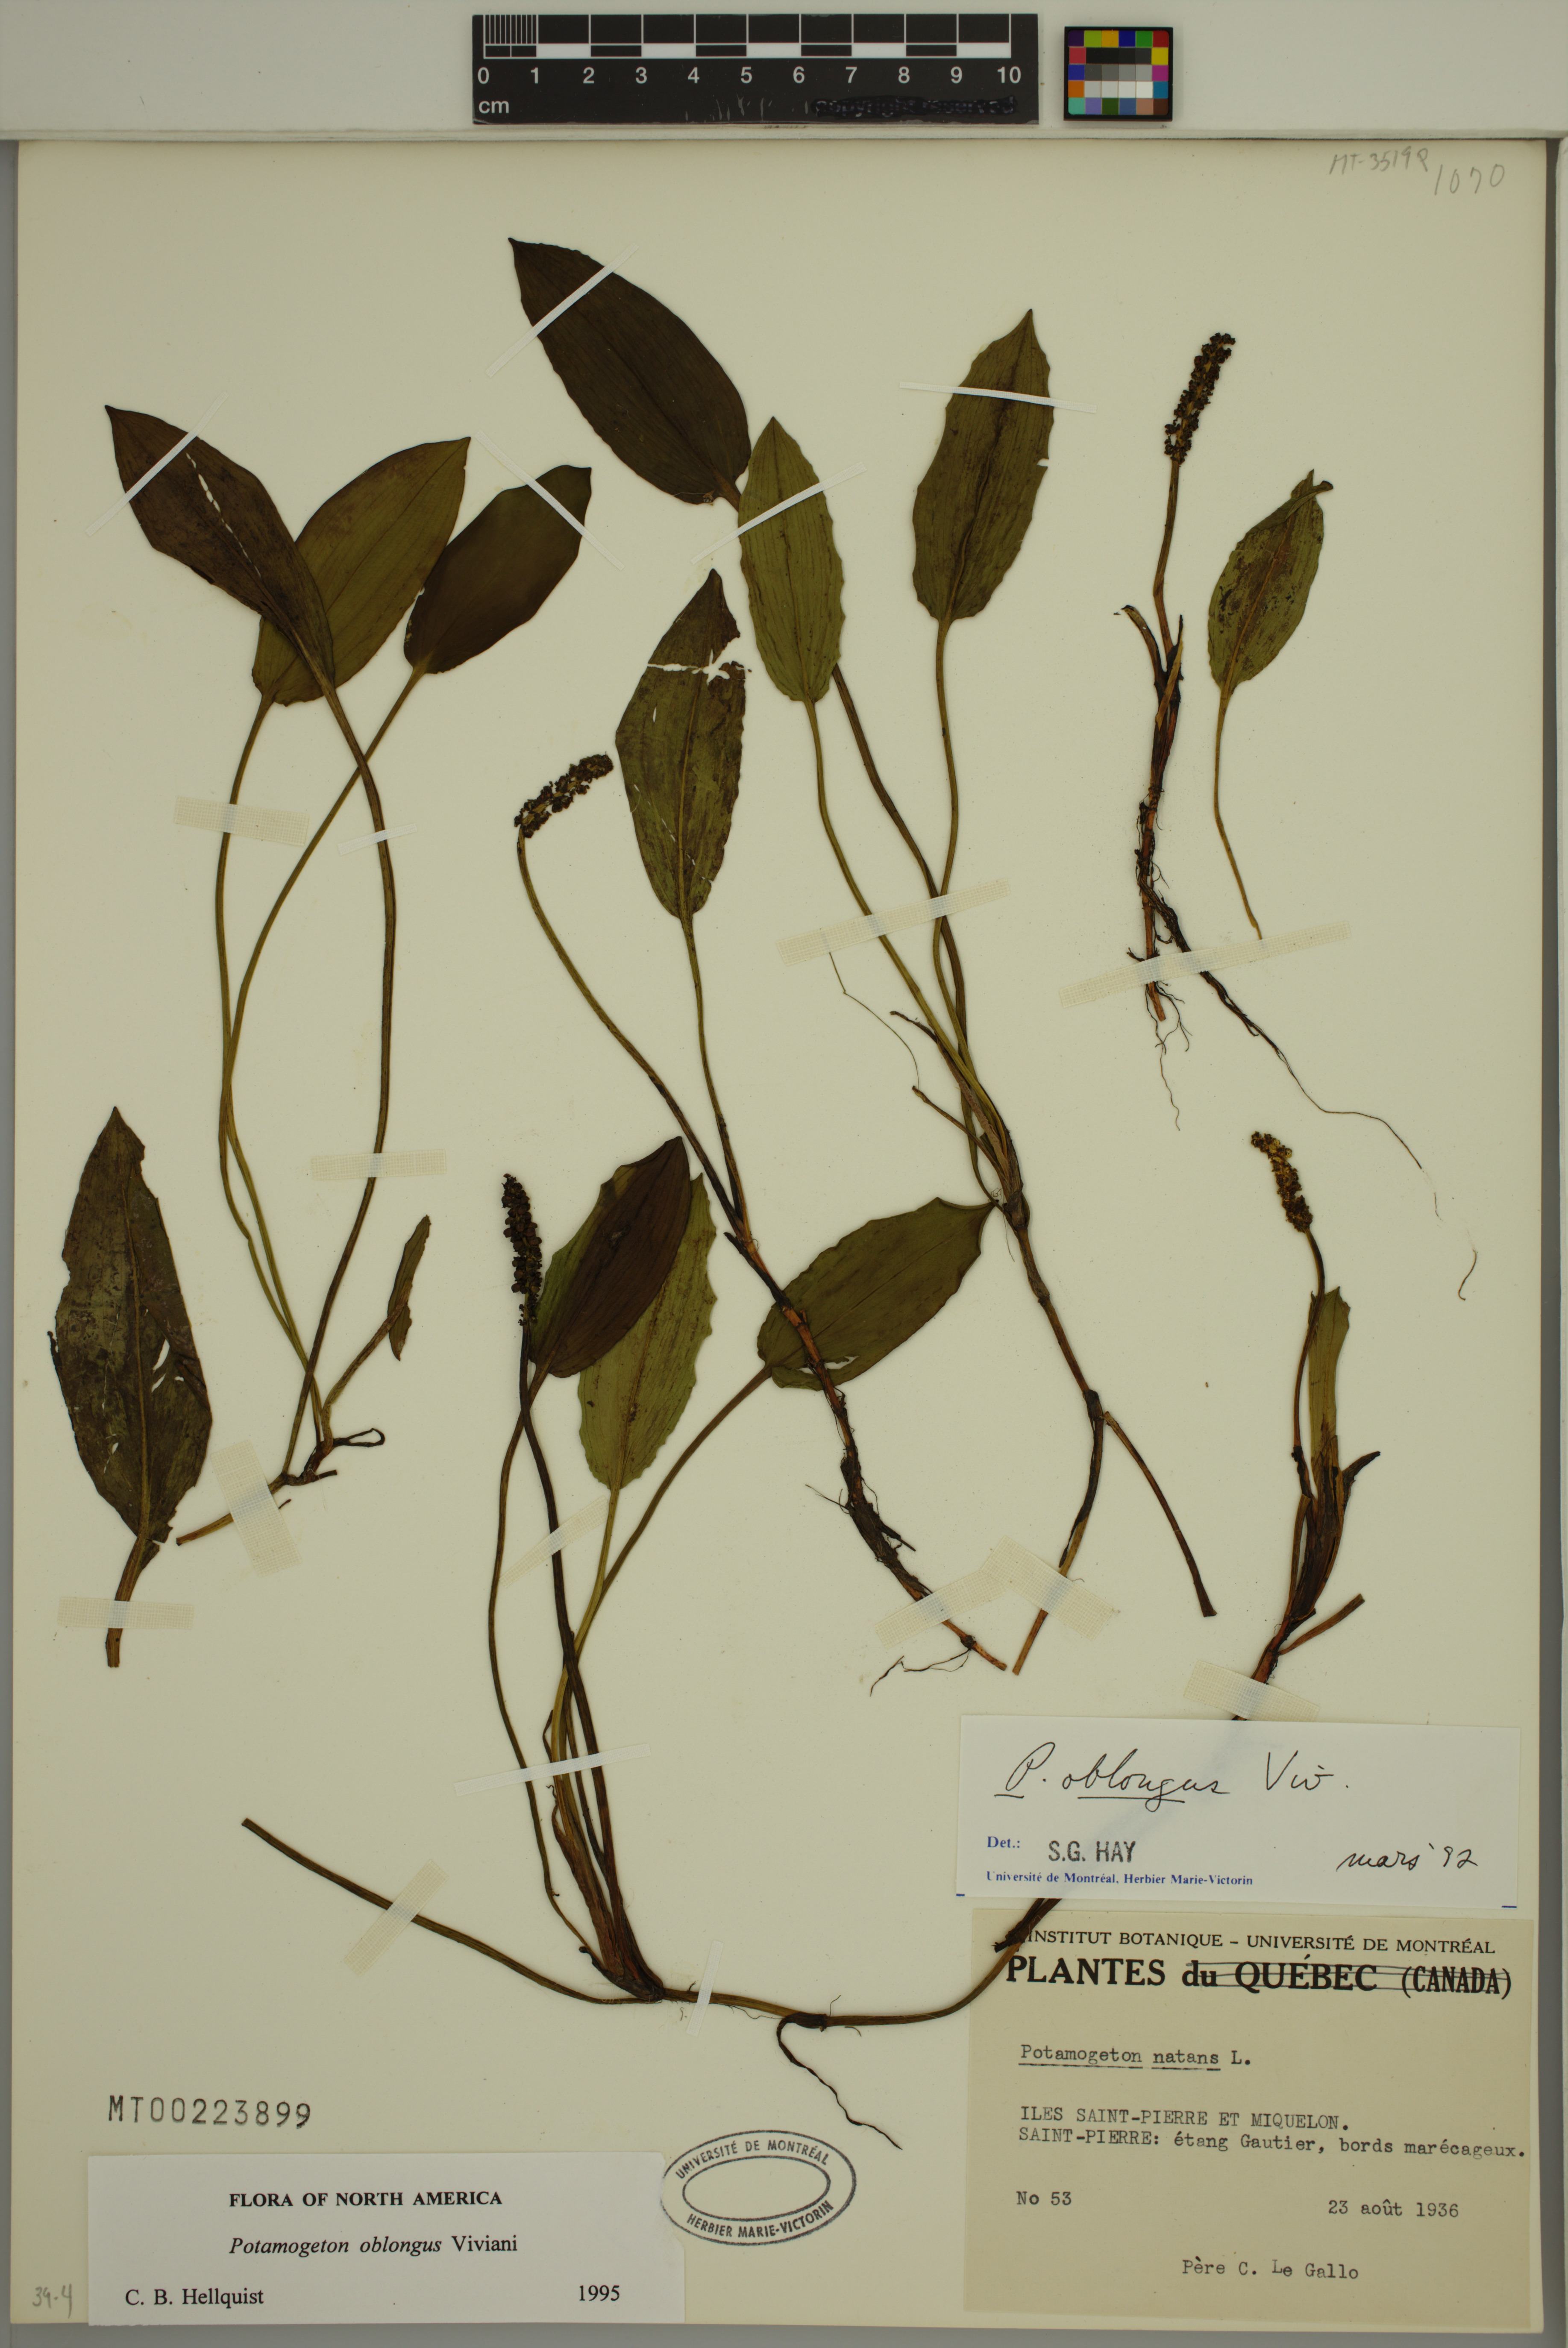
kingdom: Plantae
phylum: Tracheophyta
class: Liliopsida
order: Alismatales
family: Potamogetonaceae
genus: Potamogeton
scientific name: Potamogeton polygonifolius
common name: Bog pondweed
